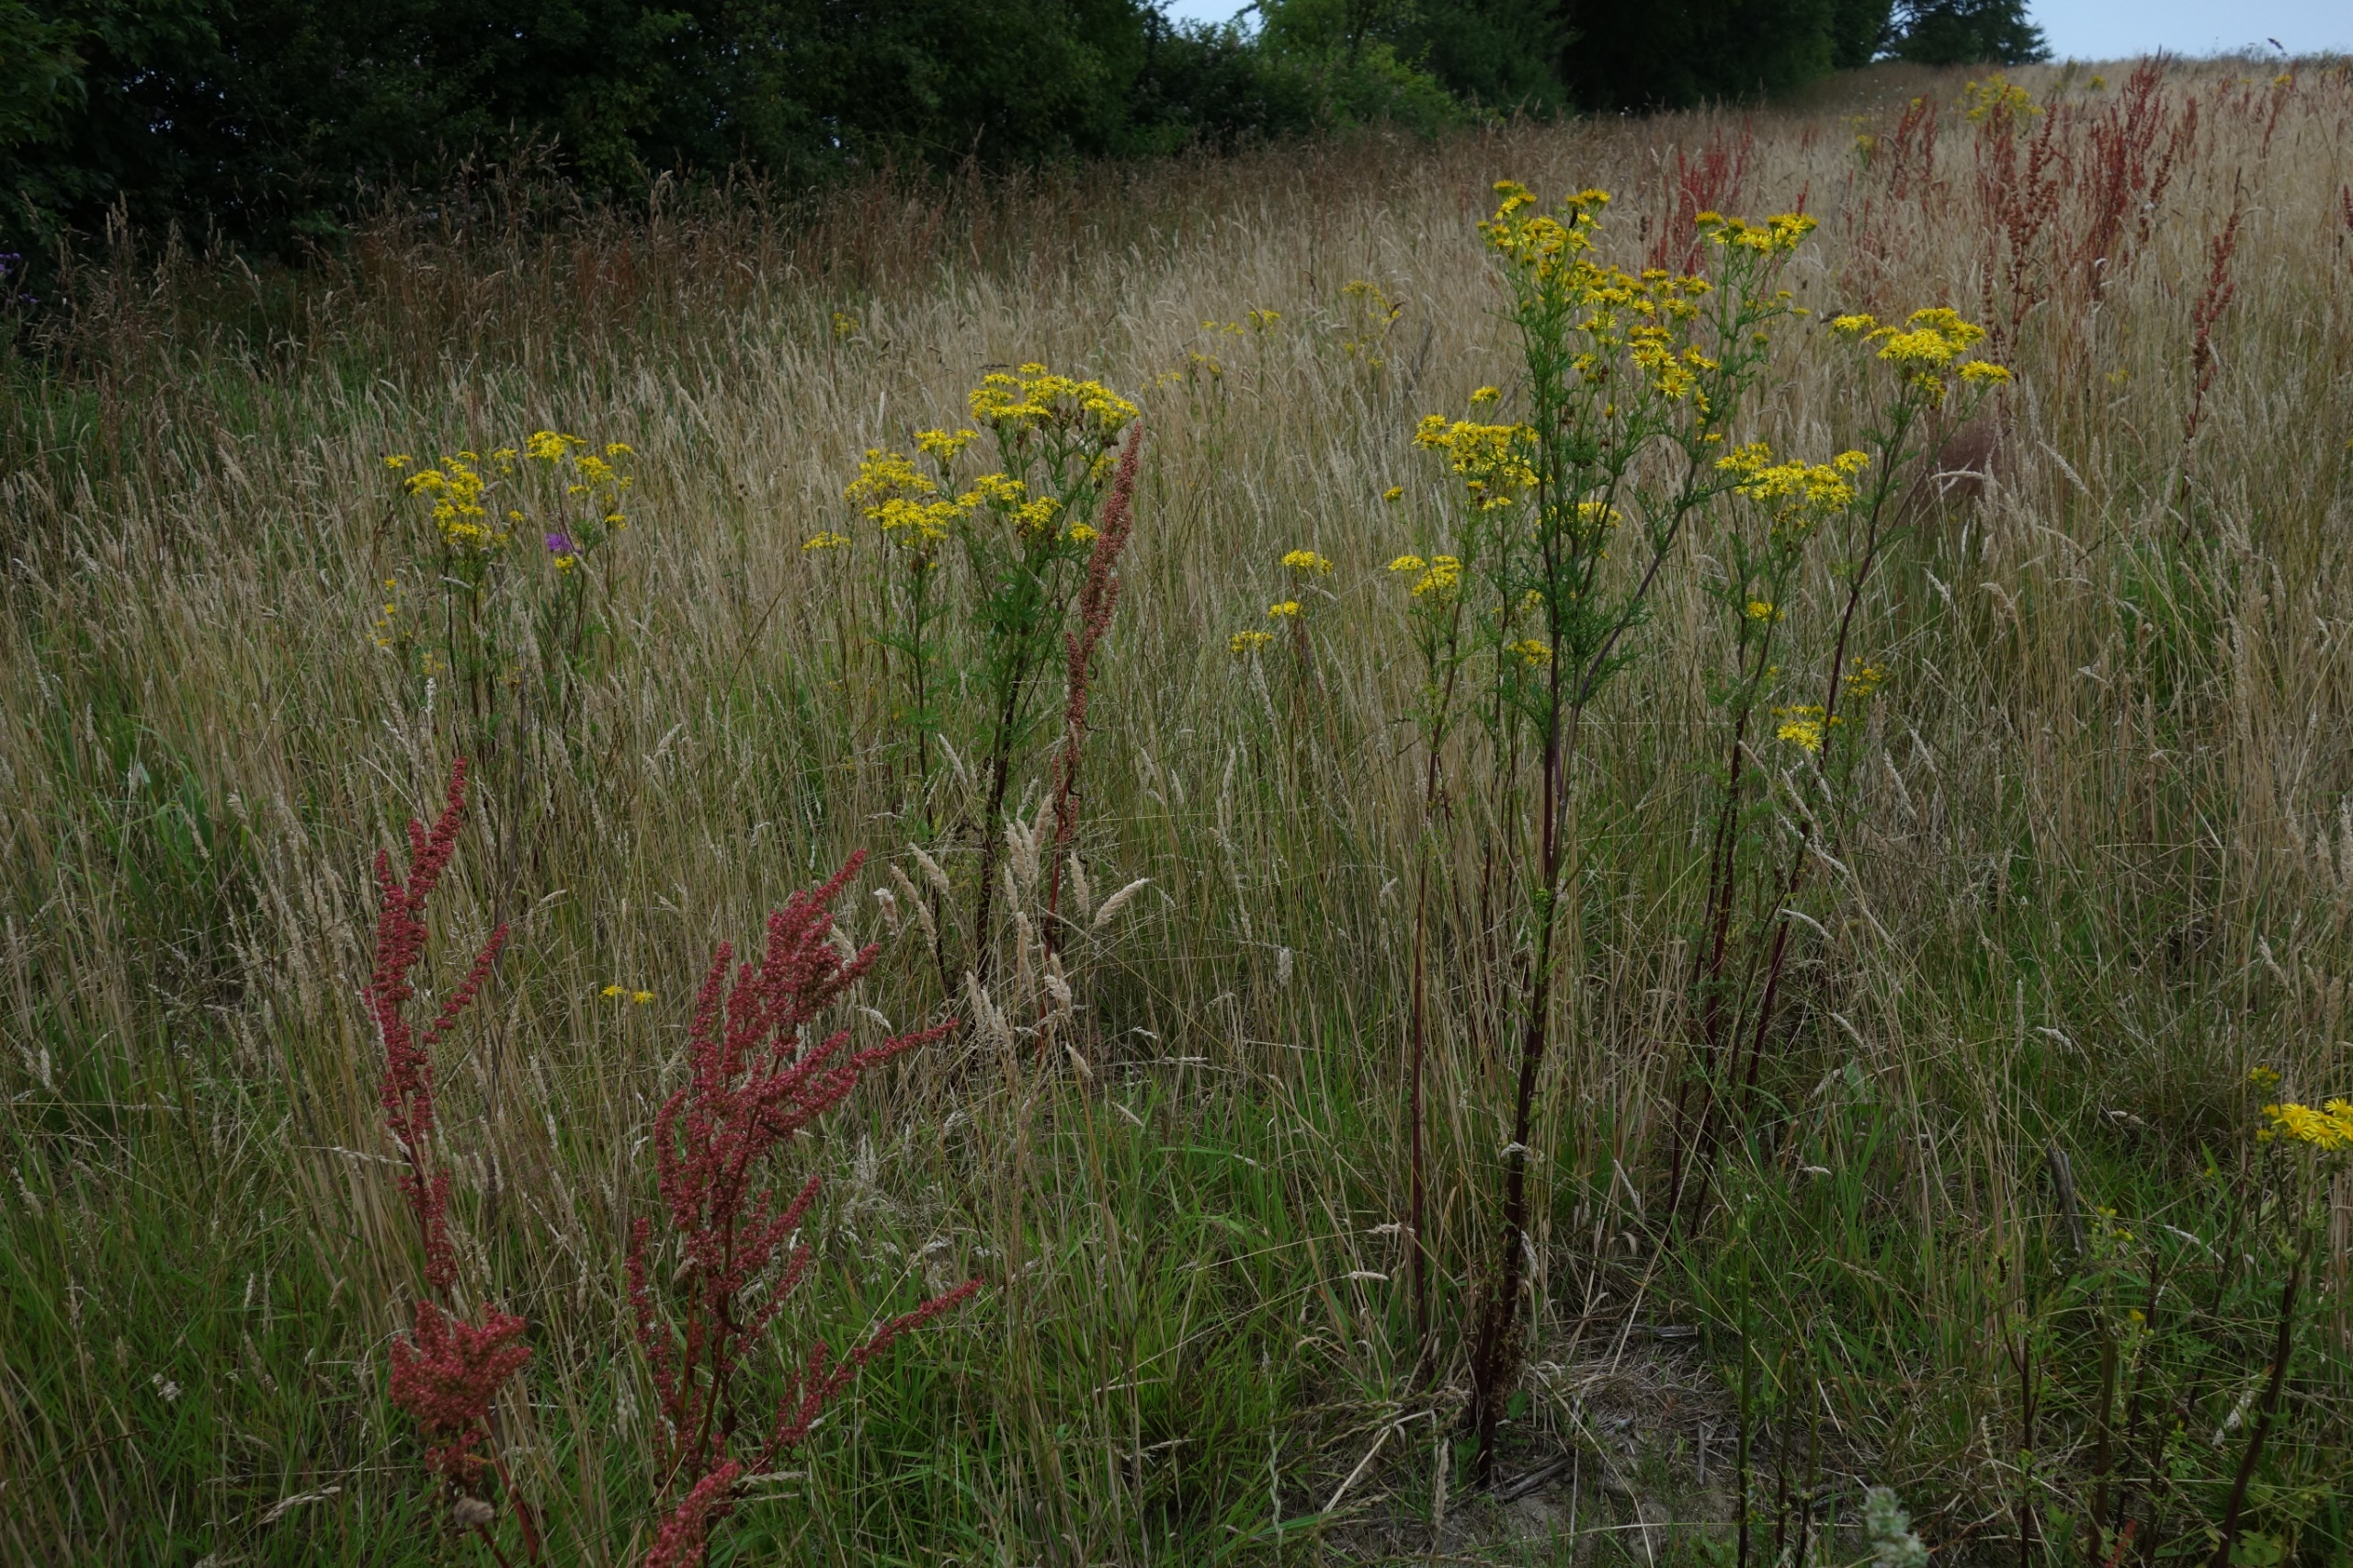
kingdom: Plantae
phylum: Tracheophyta
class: Magnoliopsida
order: Asterales
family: Asteraceae
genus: Jacobaea
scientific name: Jacobaea vulgaris
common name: Eng-brandbæger
